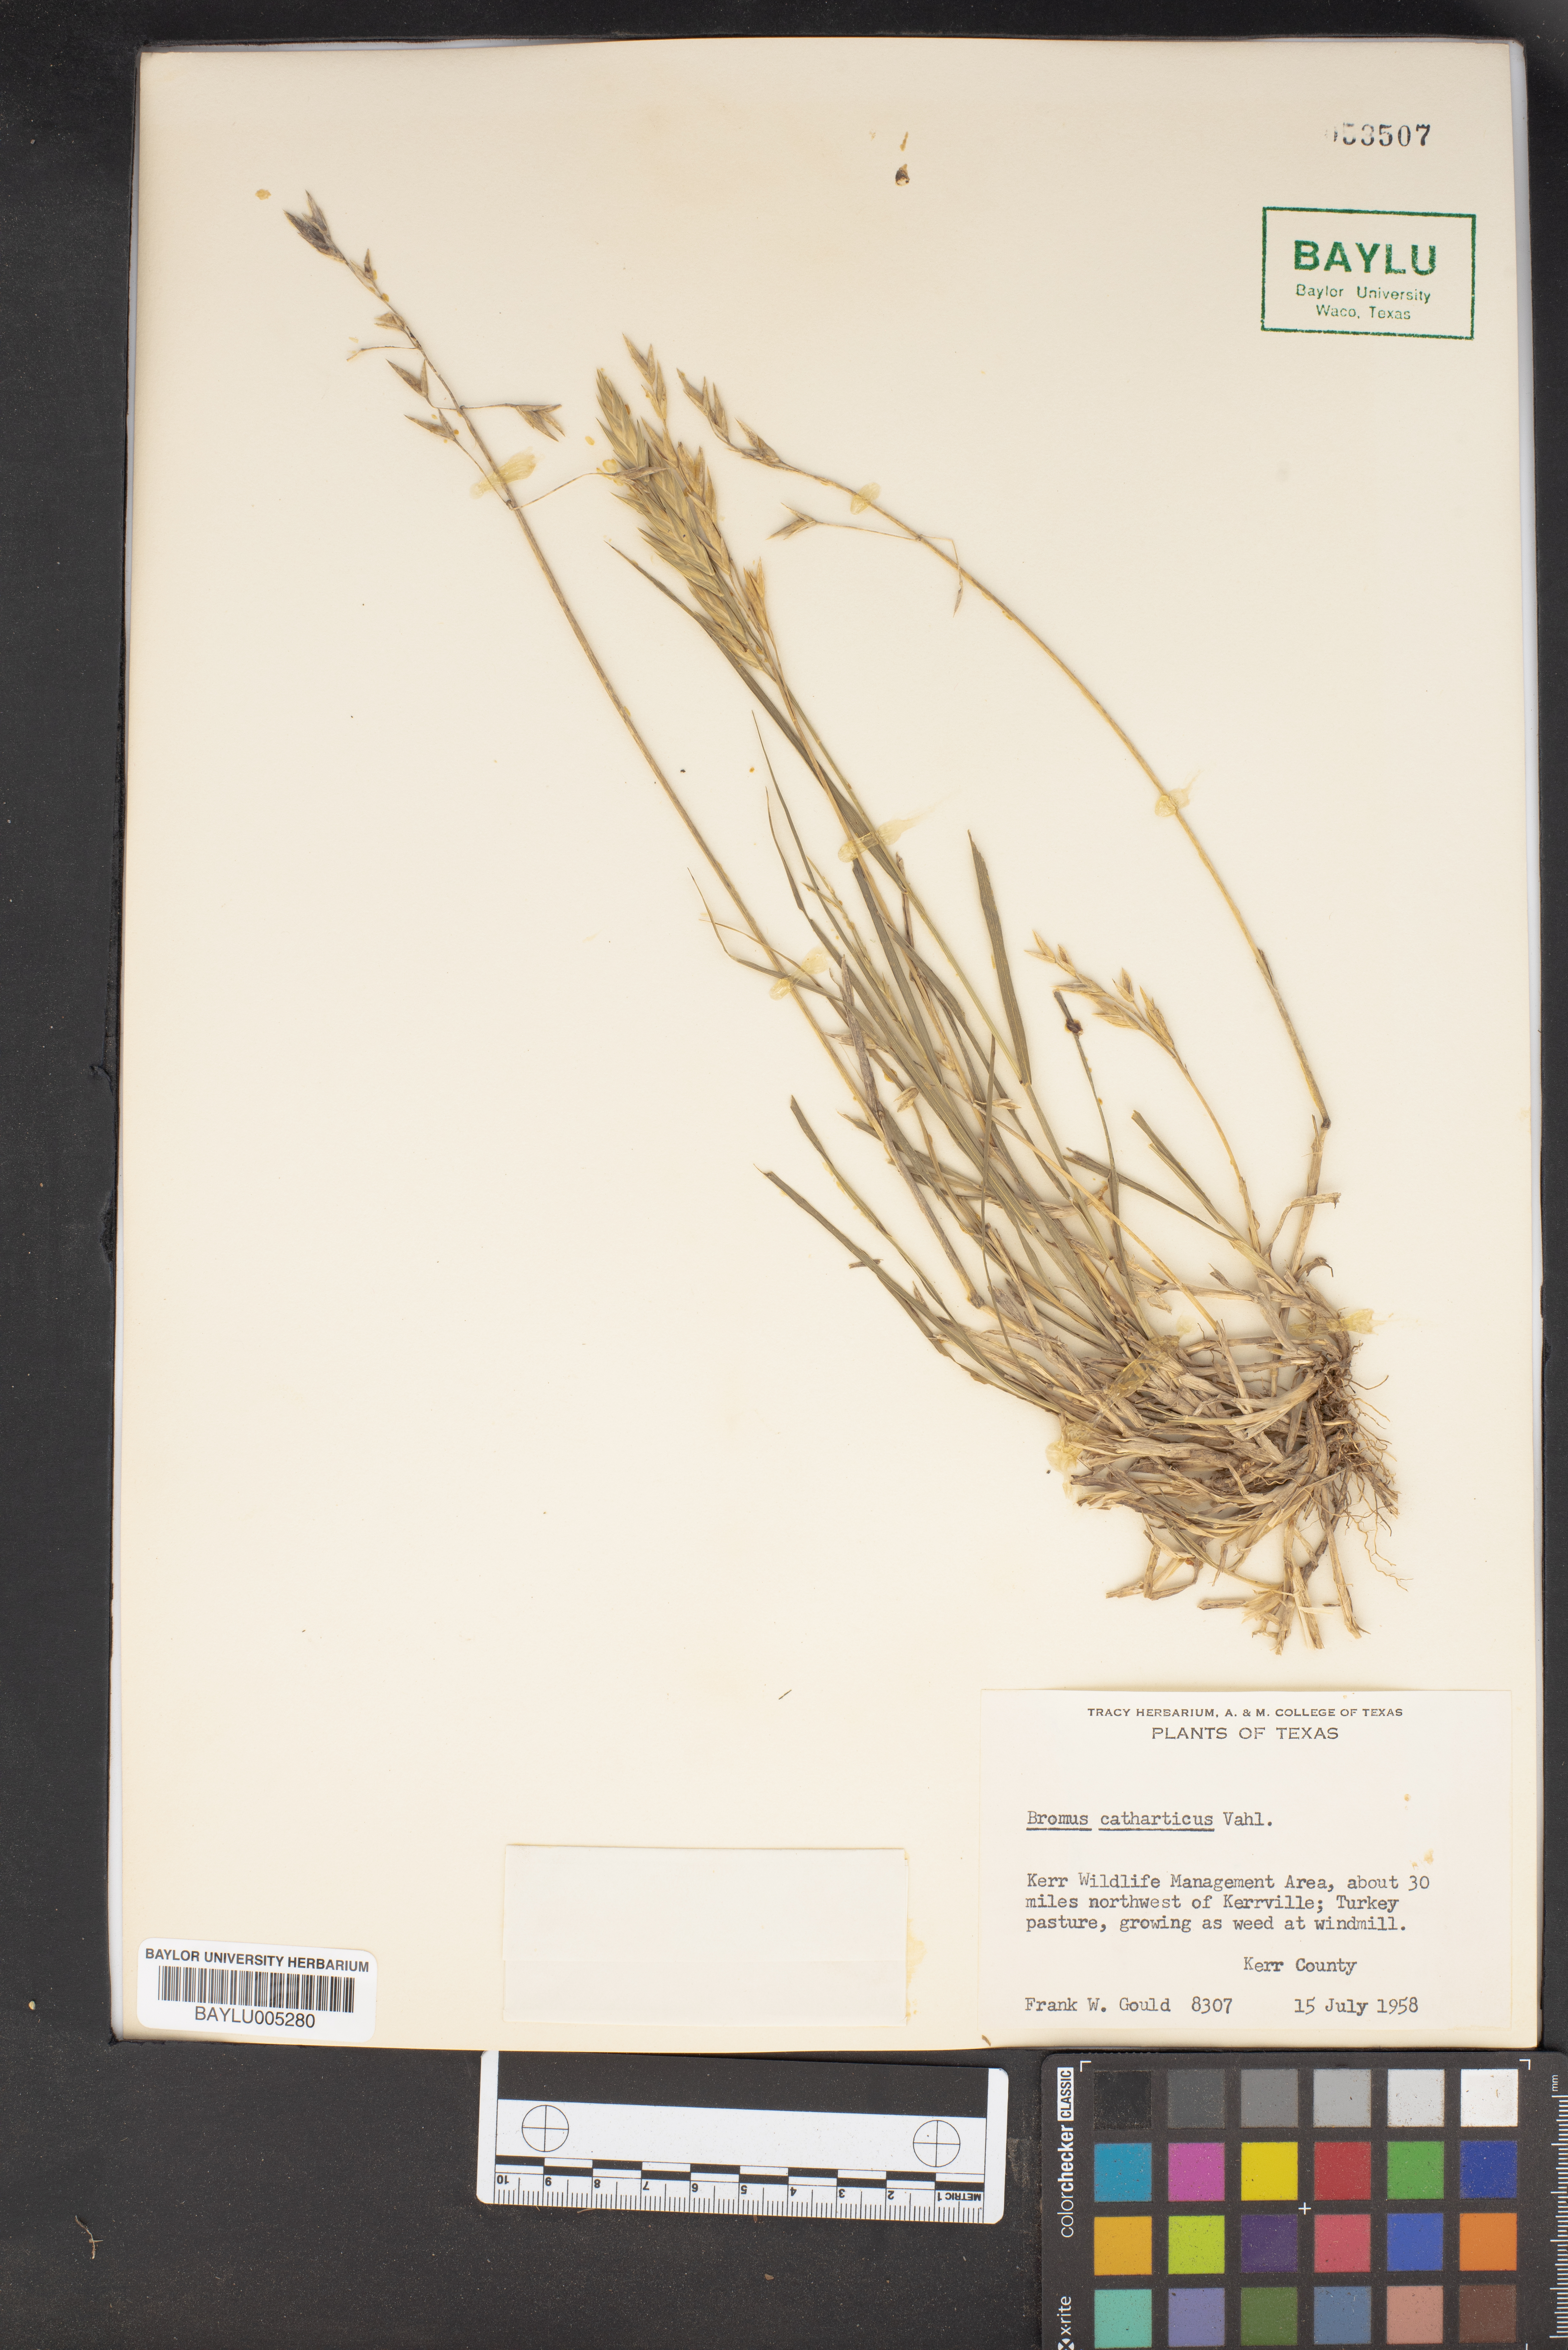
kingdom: Plantae
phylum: Tracheophyta
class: Liliopsida
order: Poales
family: Poaceae
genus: Bromus
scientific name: Bromus catharticus
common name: Rescuegrass
